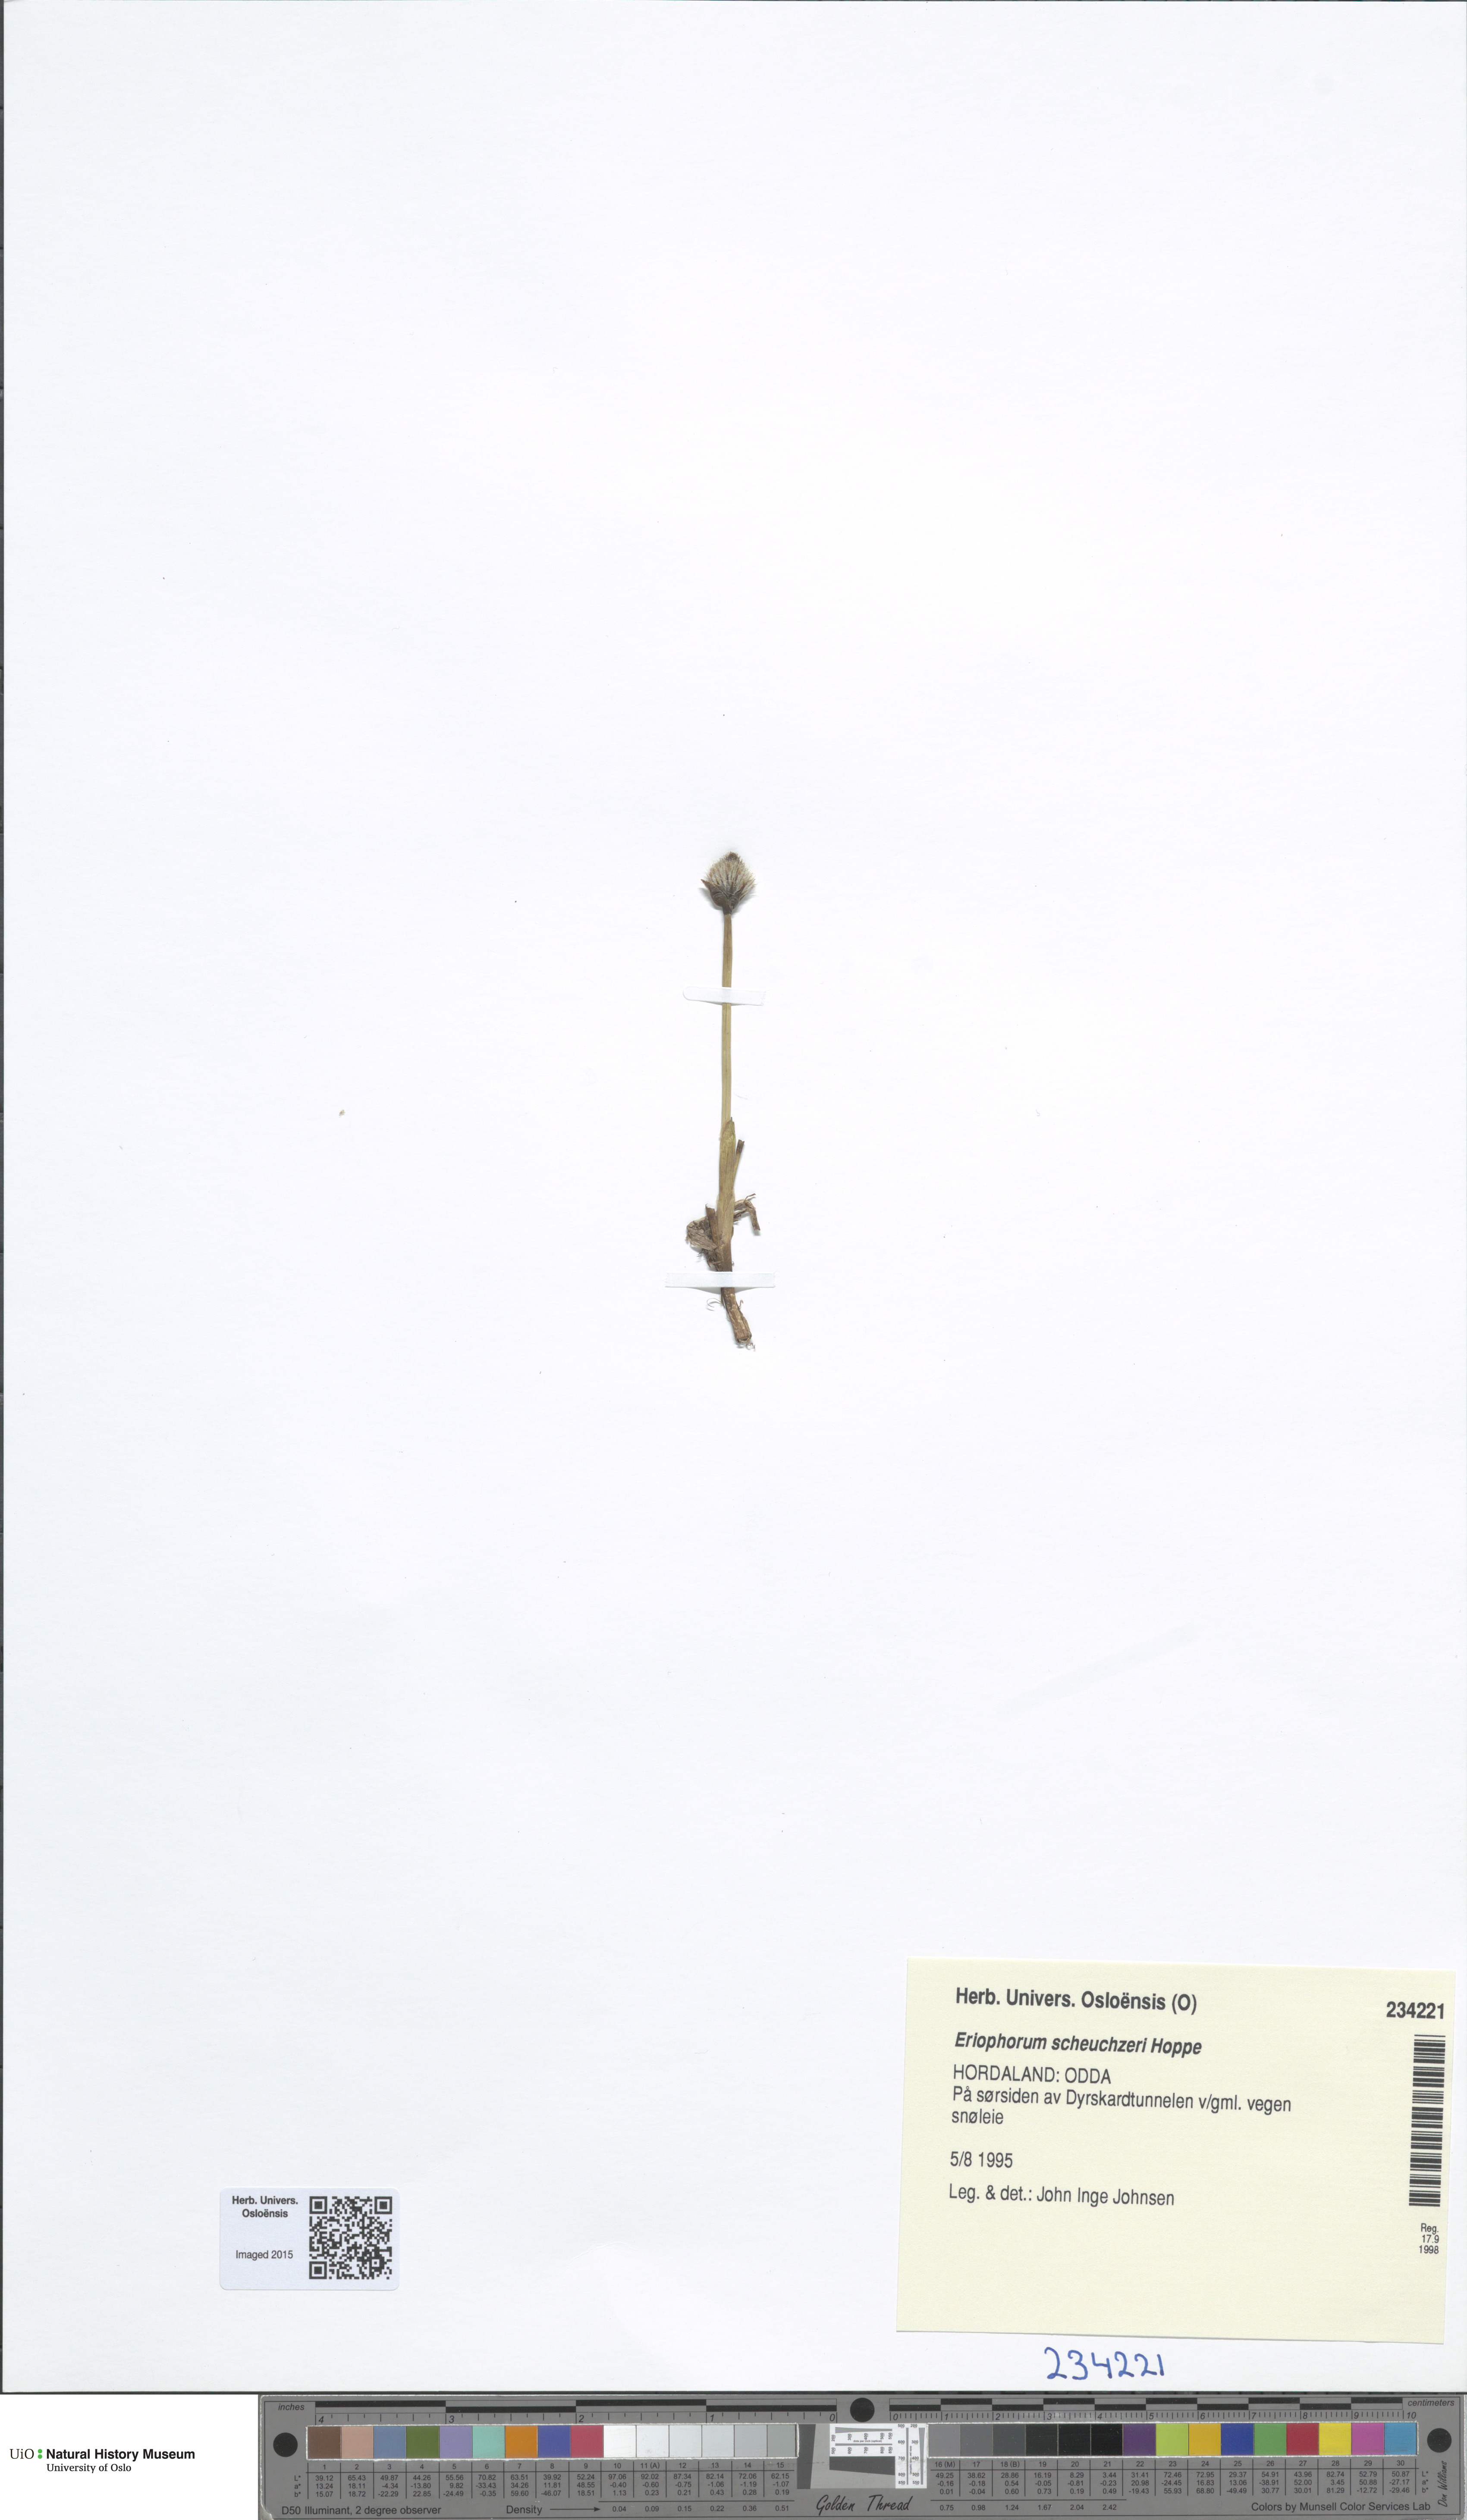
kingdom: Plantae
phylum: Tracheophyta
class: Liliopsida
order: Poales
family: Cyperaceae
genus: Eriophorum
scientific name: Eriophorum scheuchzeri
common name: Scheuchzer's cottongrass
